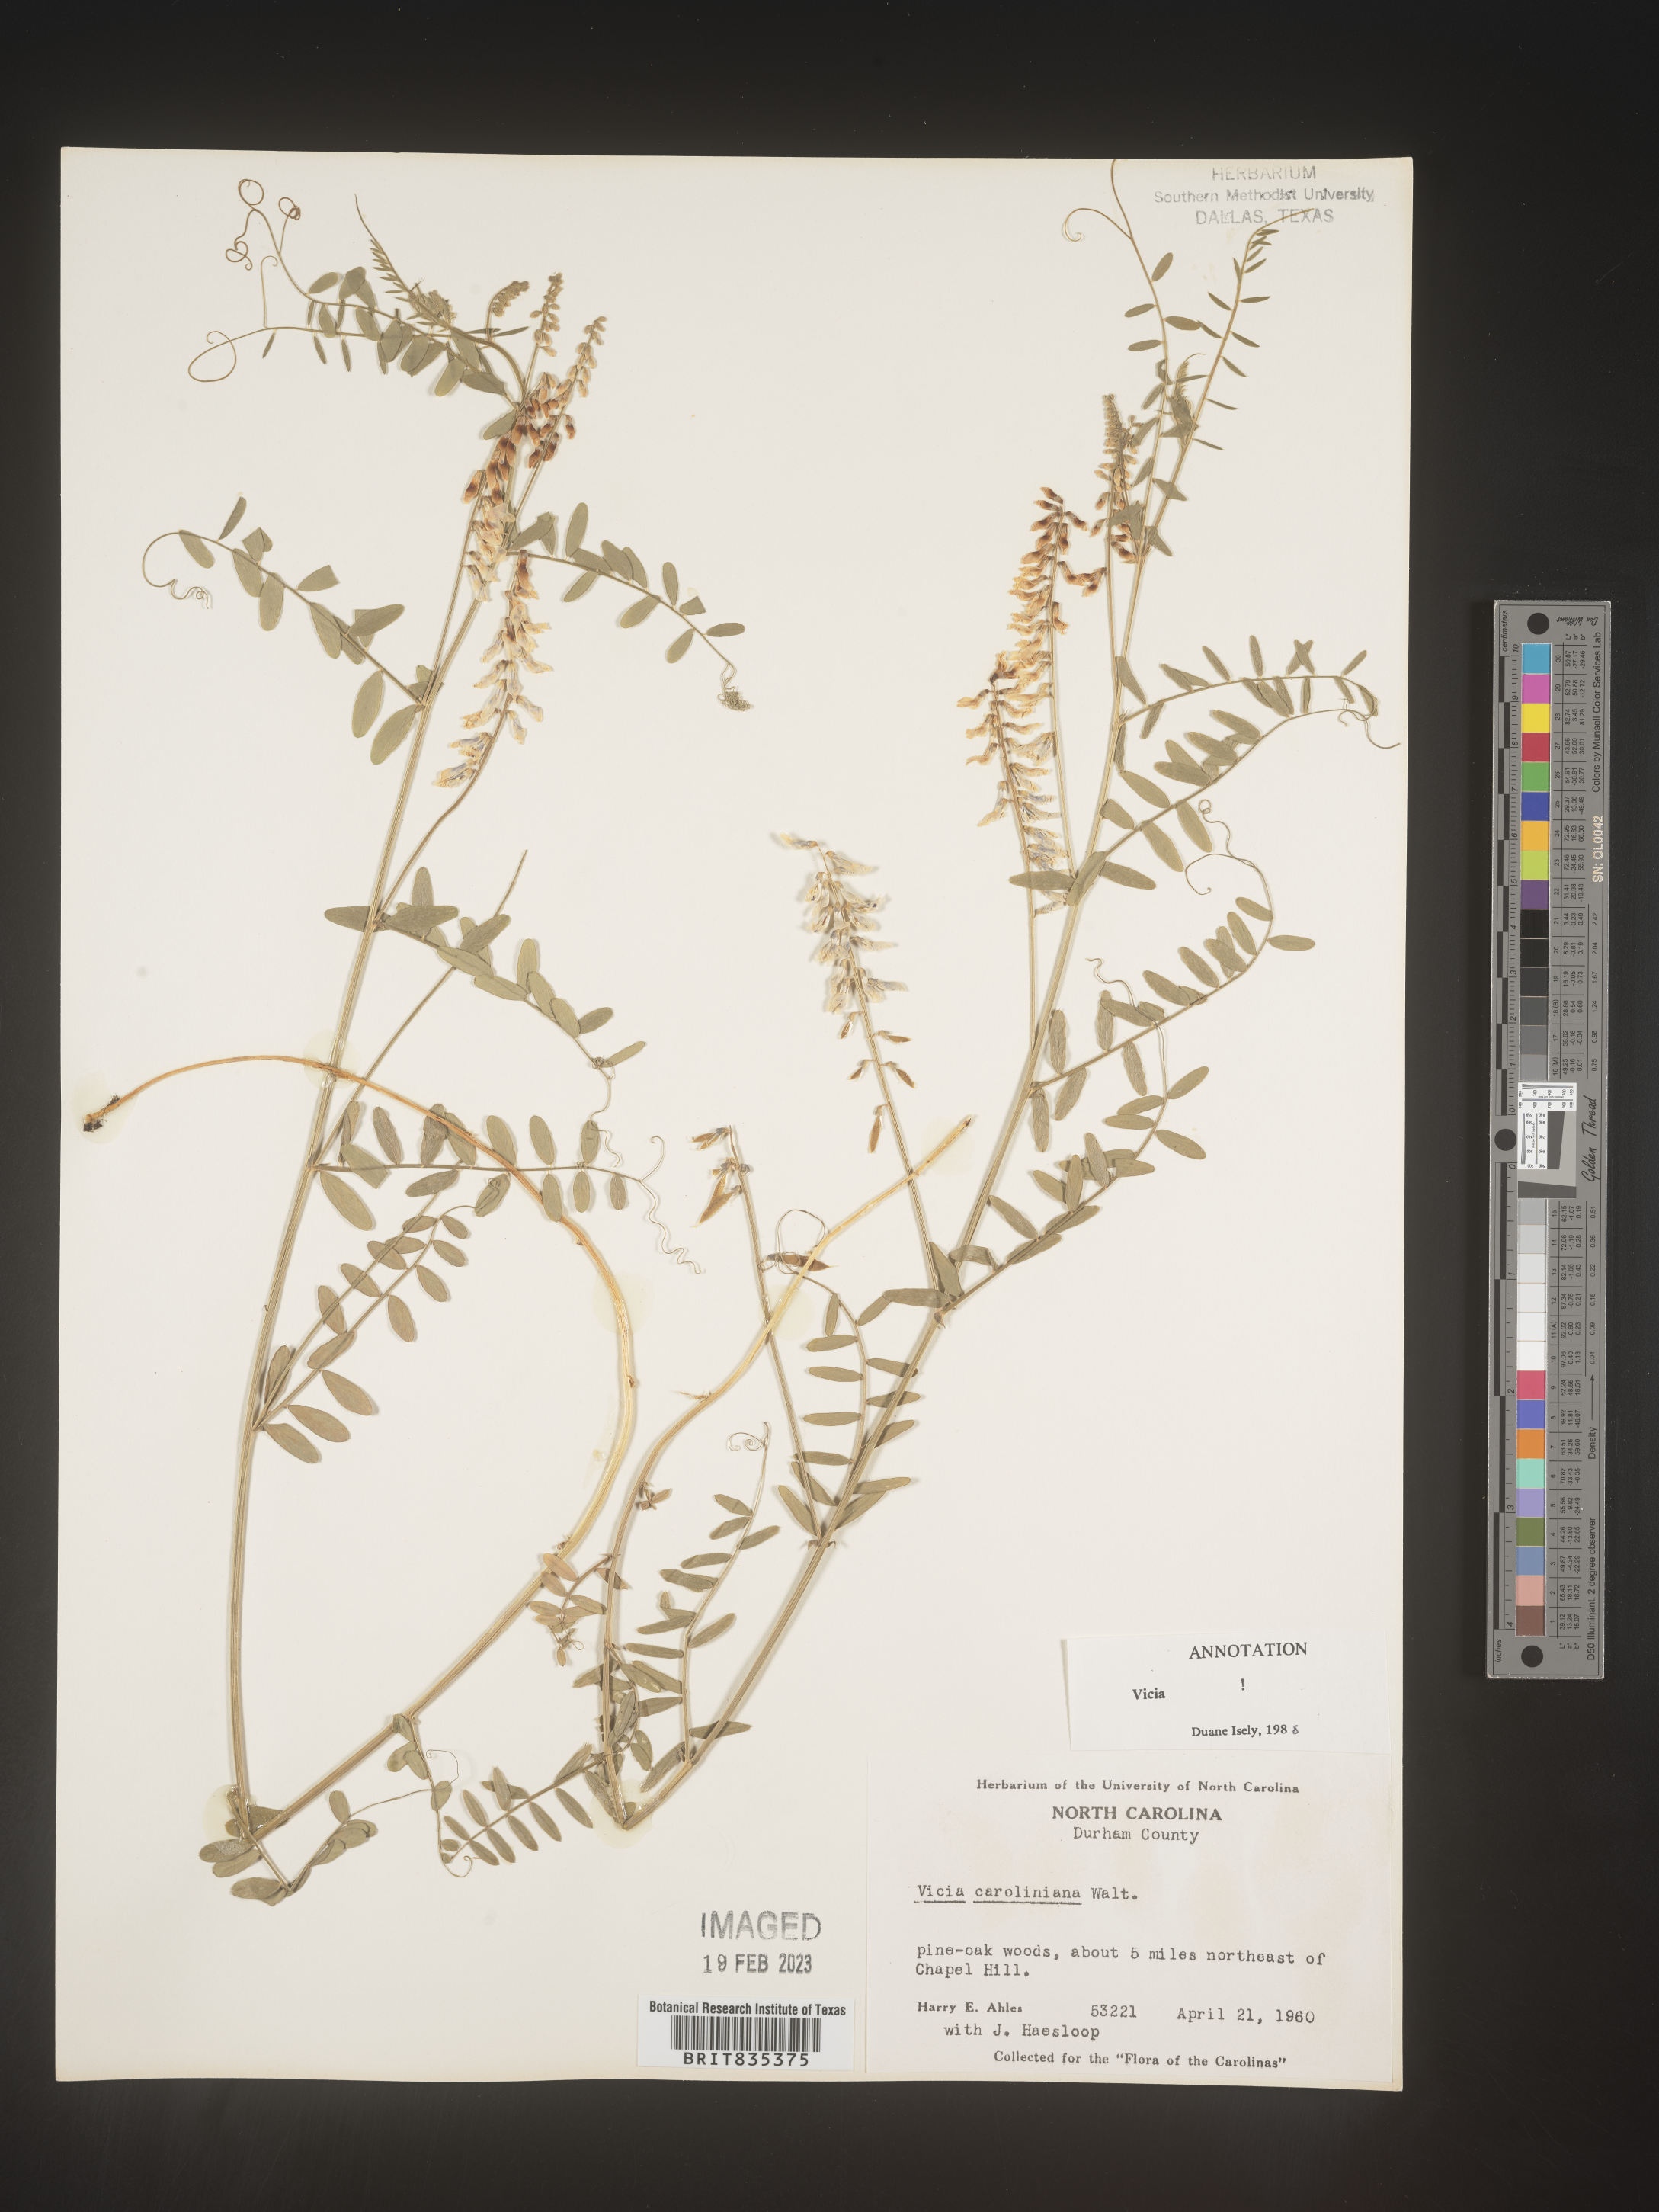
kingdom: Plantae
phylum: Tracheophyta
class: Magnoliopsida
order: Fabales
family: Fabaceae
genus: Vicia
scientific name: Vicia caroliniana
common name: Carolina vetch
